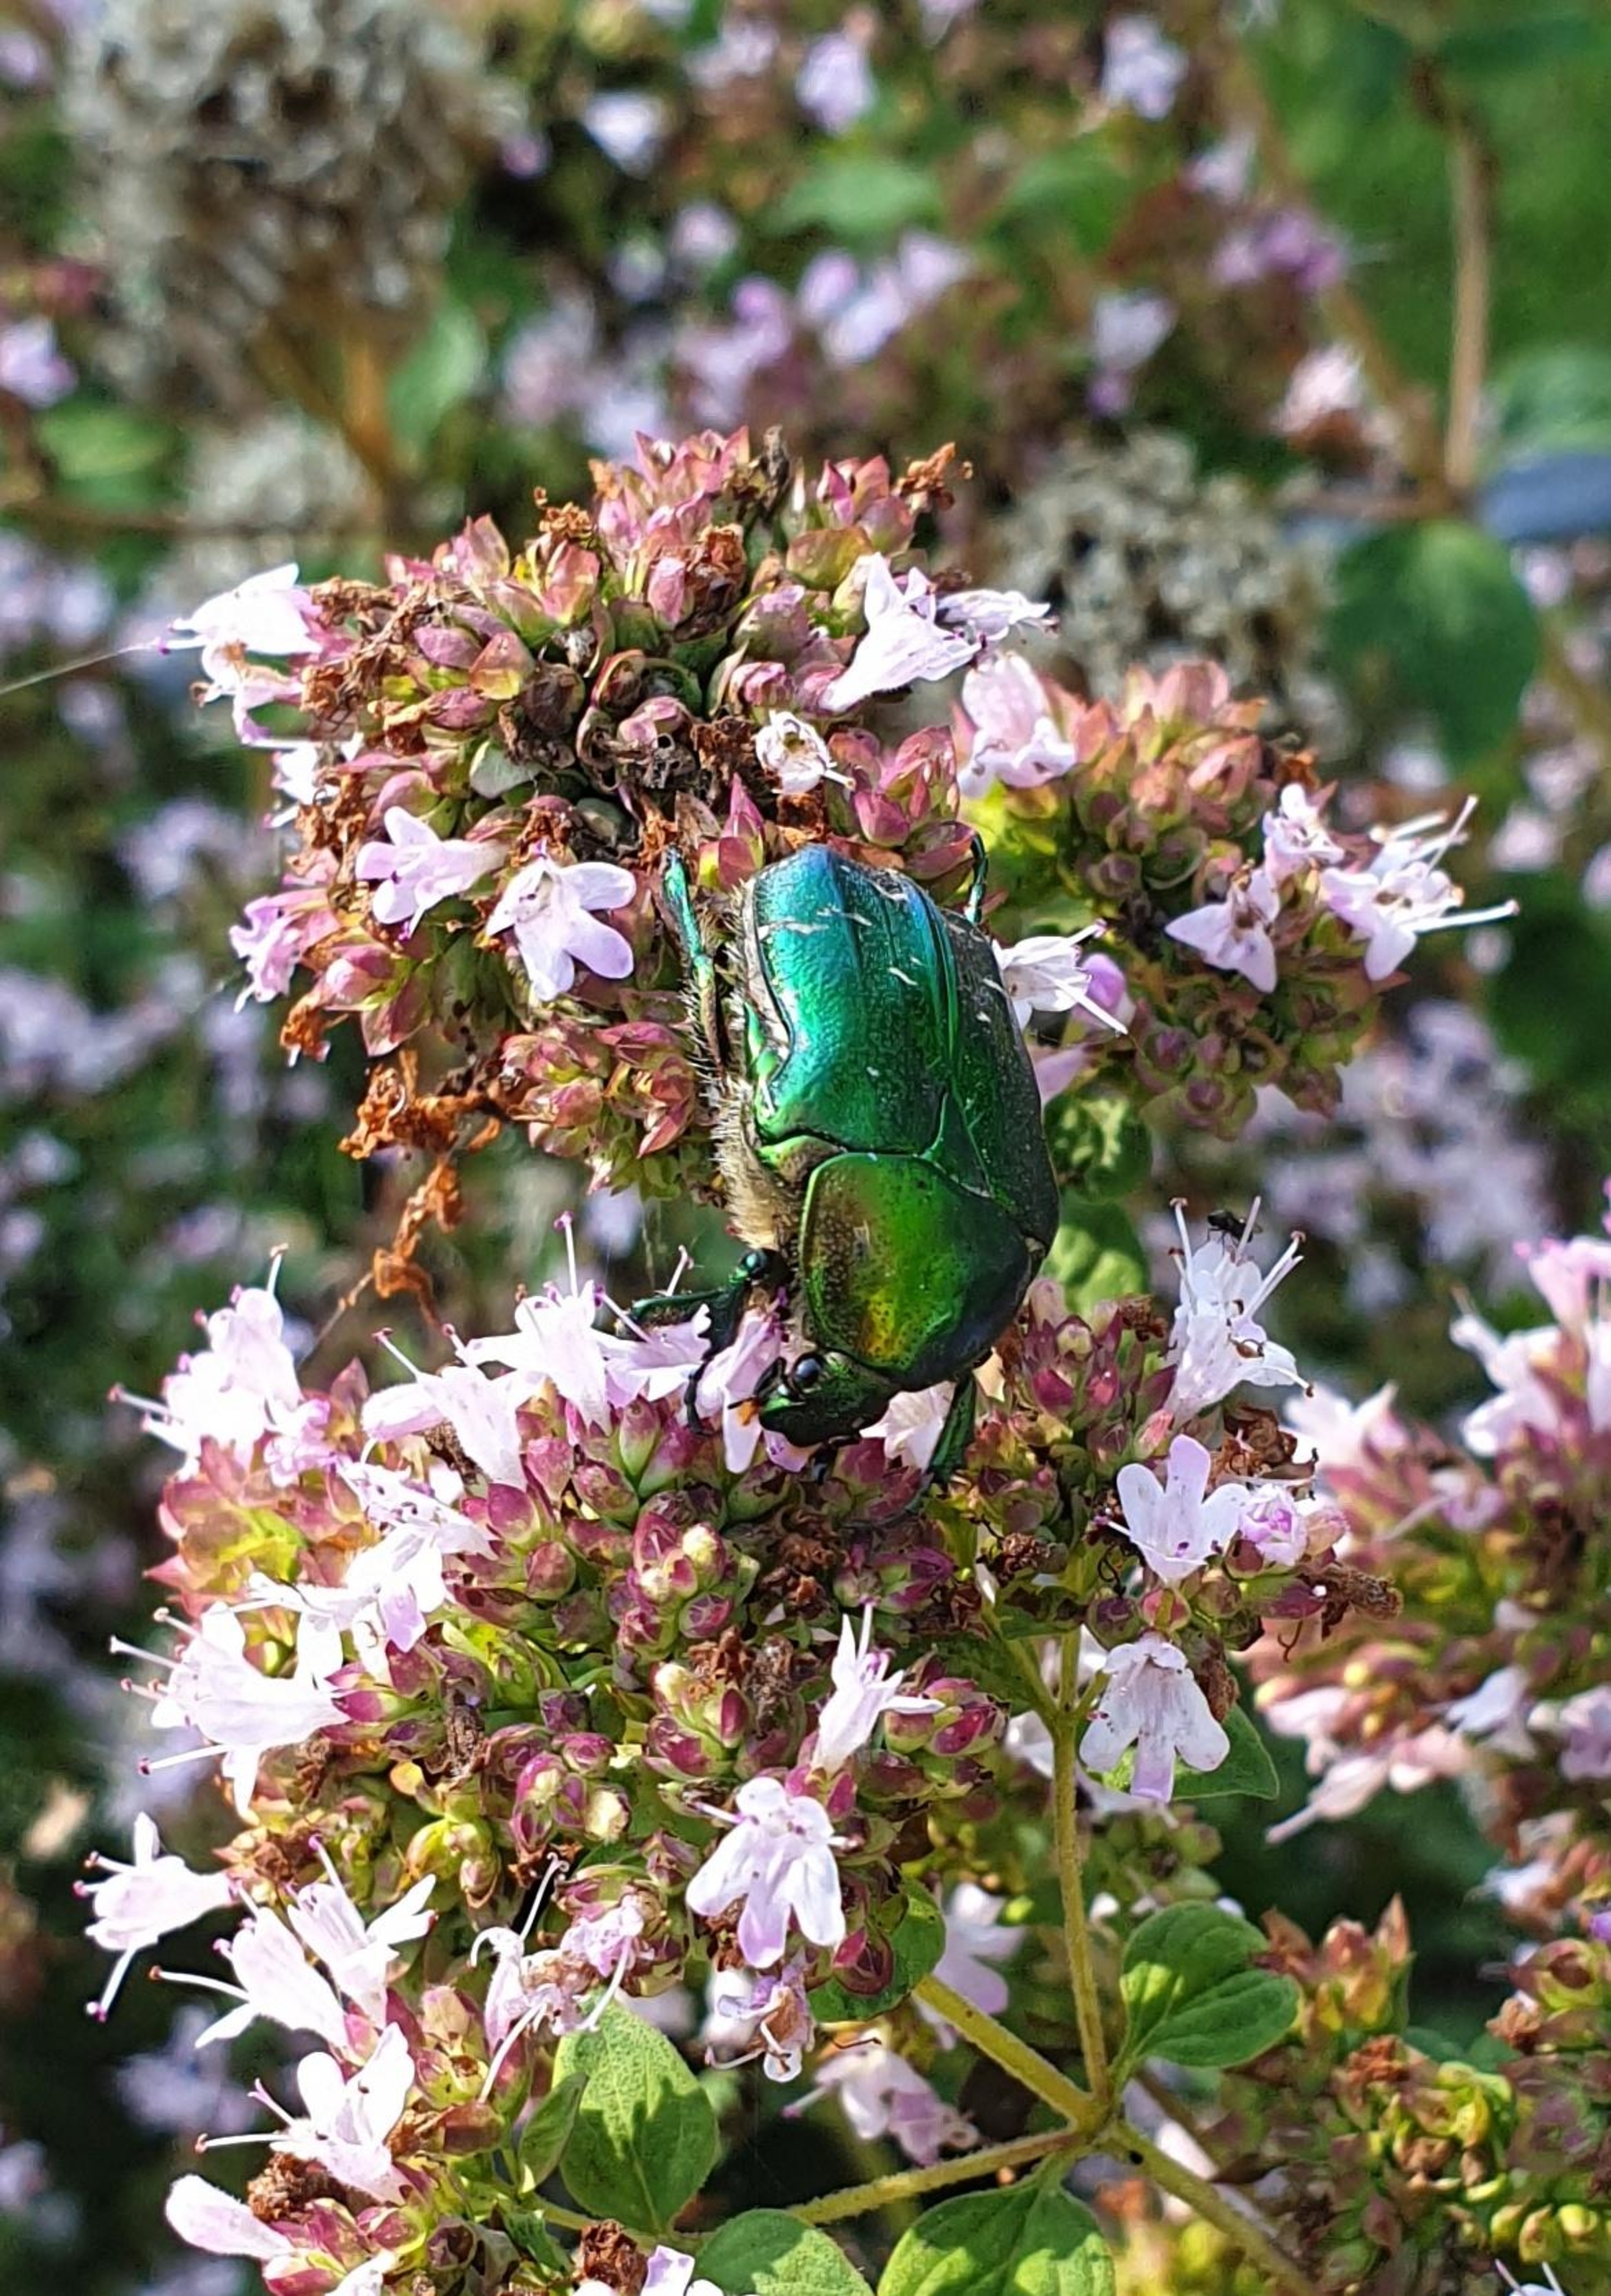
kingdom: Animalia
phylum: Arthropoda
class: Insecta
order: Coleoptera
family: Scarabaeidae
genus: Cetonia
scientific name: Cetonia aurata
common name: Grøn guldbasse
